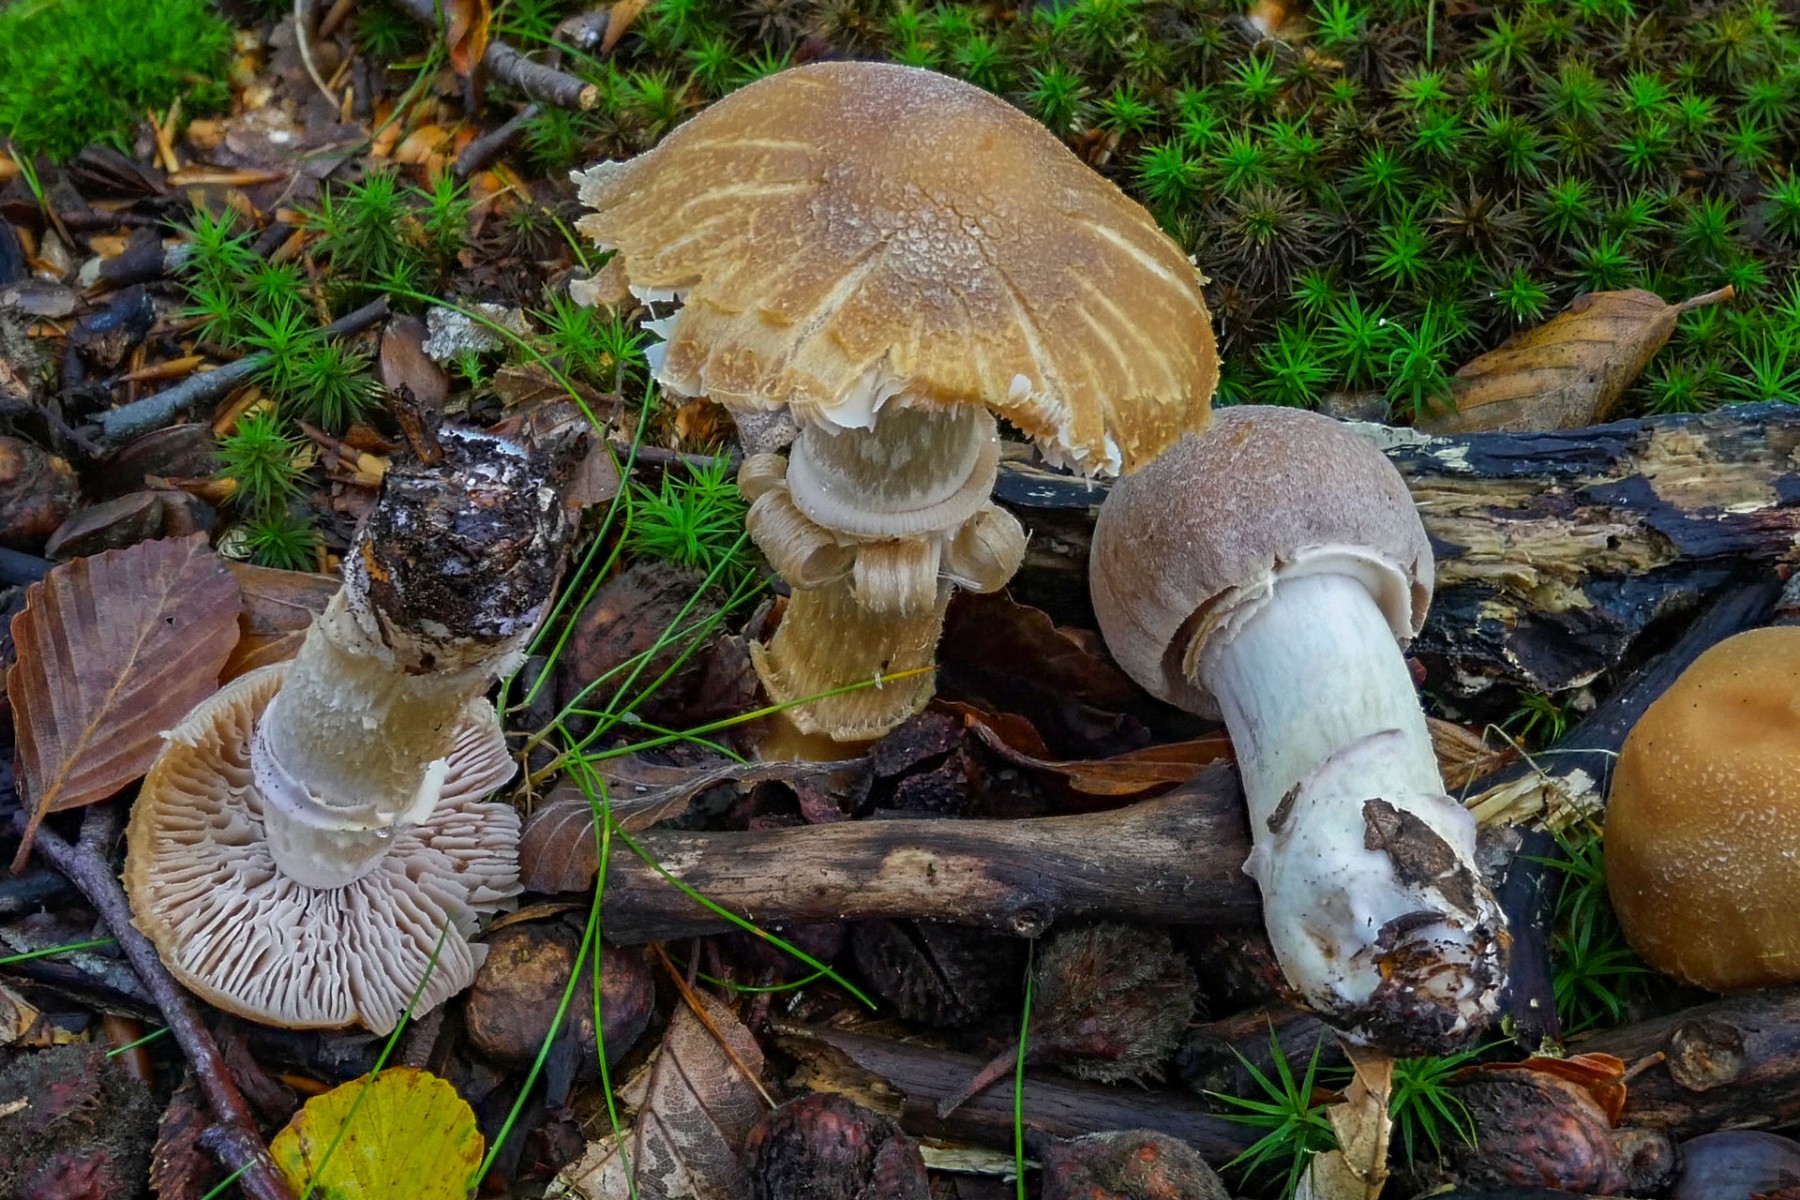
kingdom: Fungi
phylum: Basidiomycota
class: Agaricomycetes
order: Agaricales
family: Cortinariaceae
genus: Cortinarius
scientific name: Cortinarius caperatus
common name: klidhat
